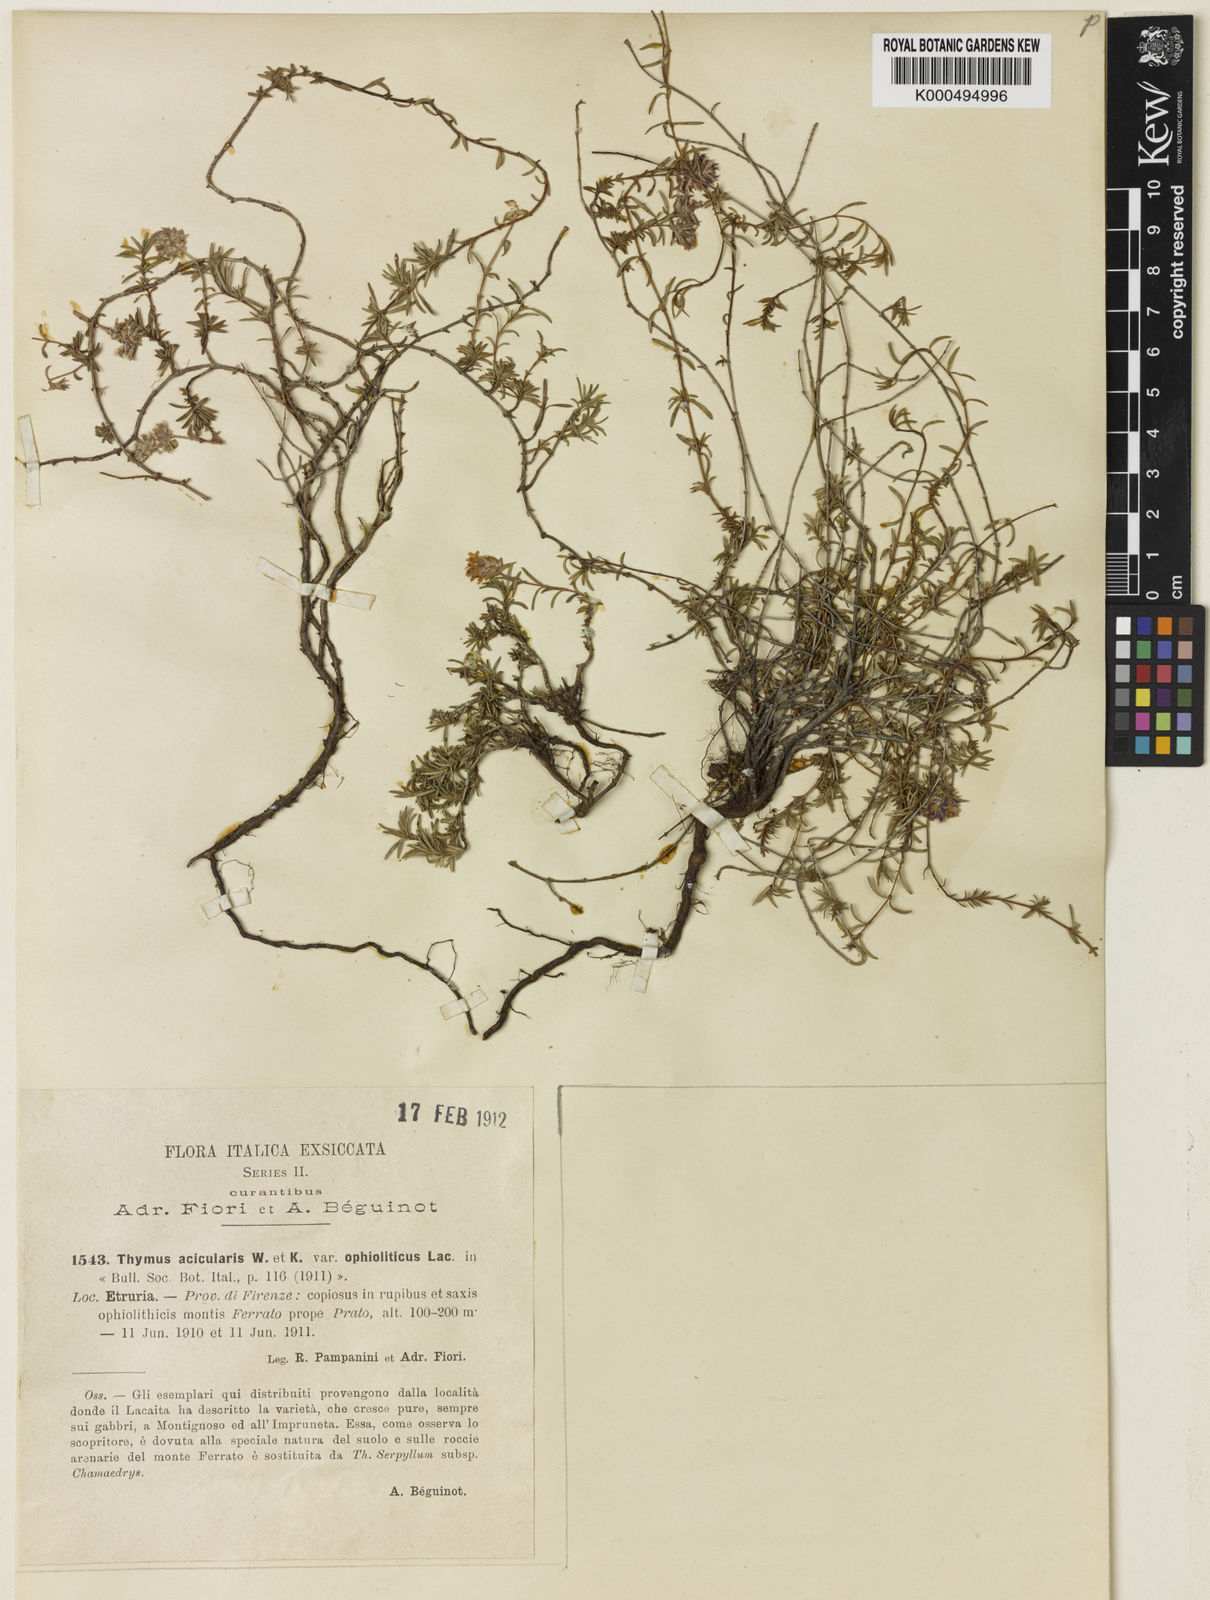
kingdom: Plantae
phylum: Tracheophyta
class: Magnoliopsida
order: Lamiales
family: Lamiaceae
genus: Thymus
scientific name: Thymus striatus
